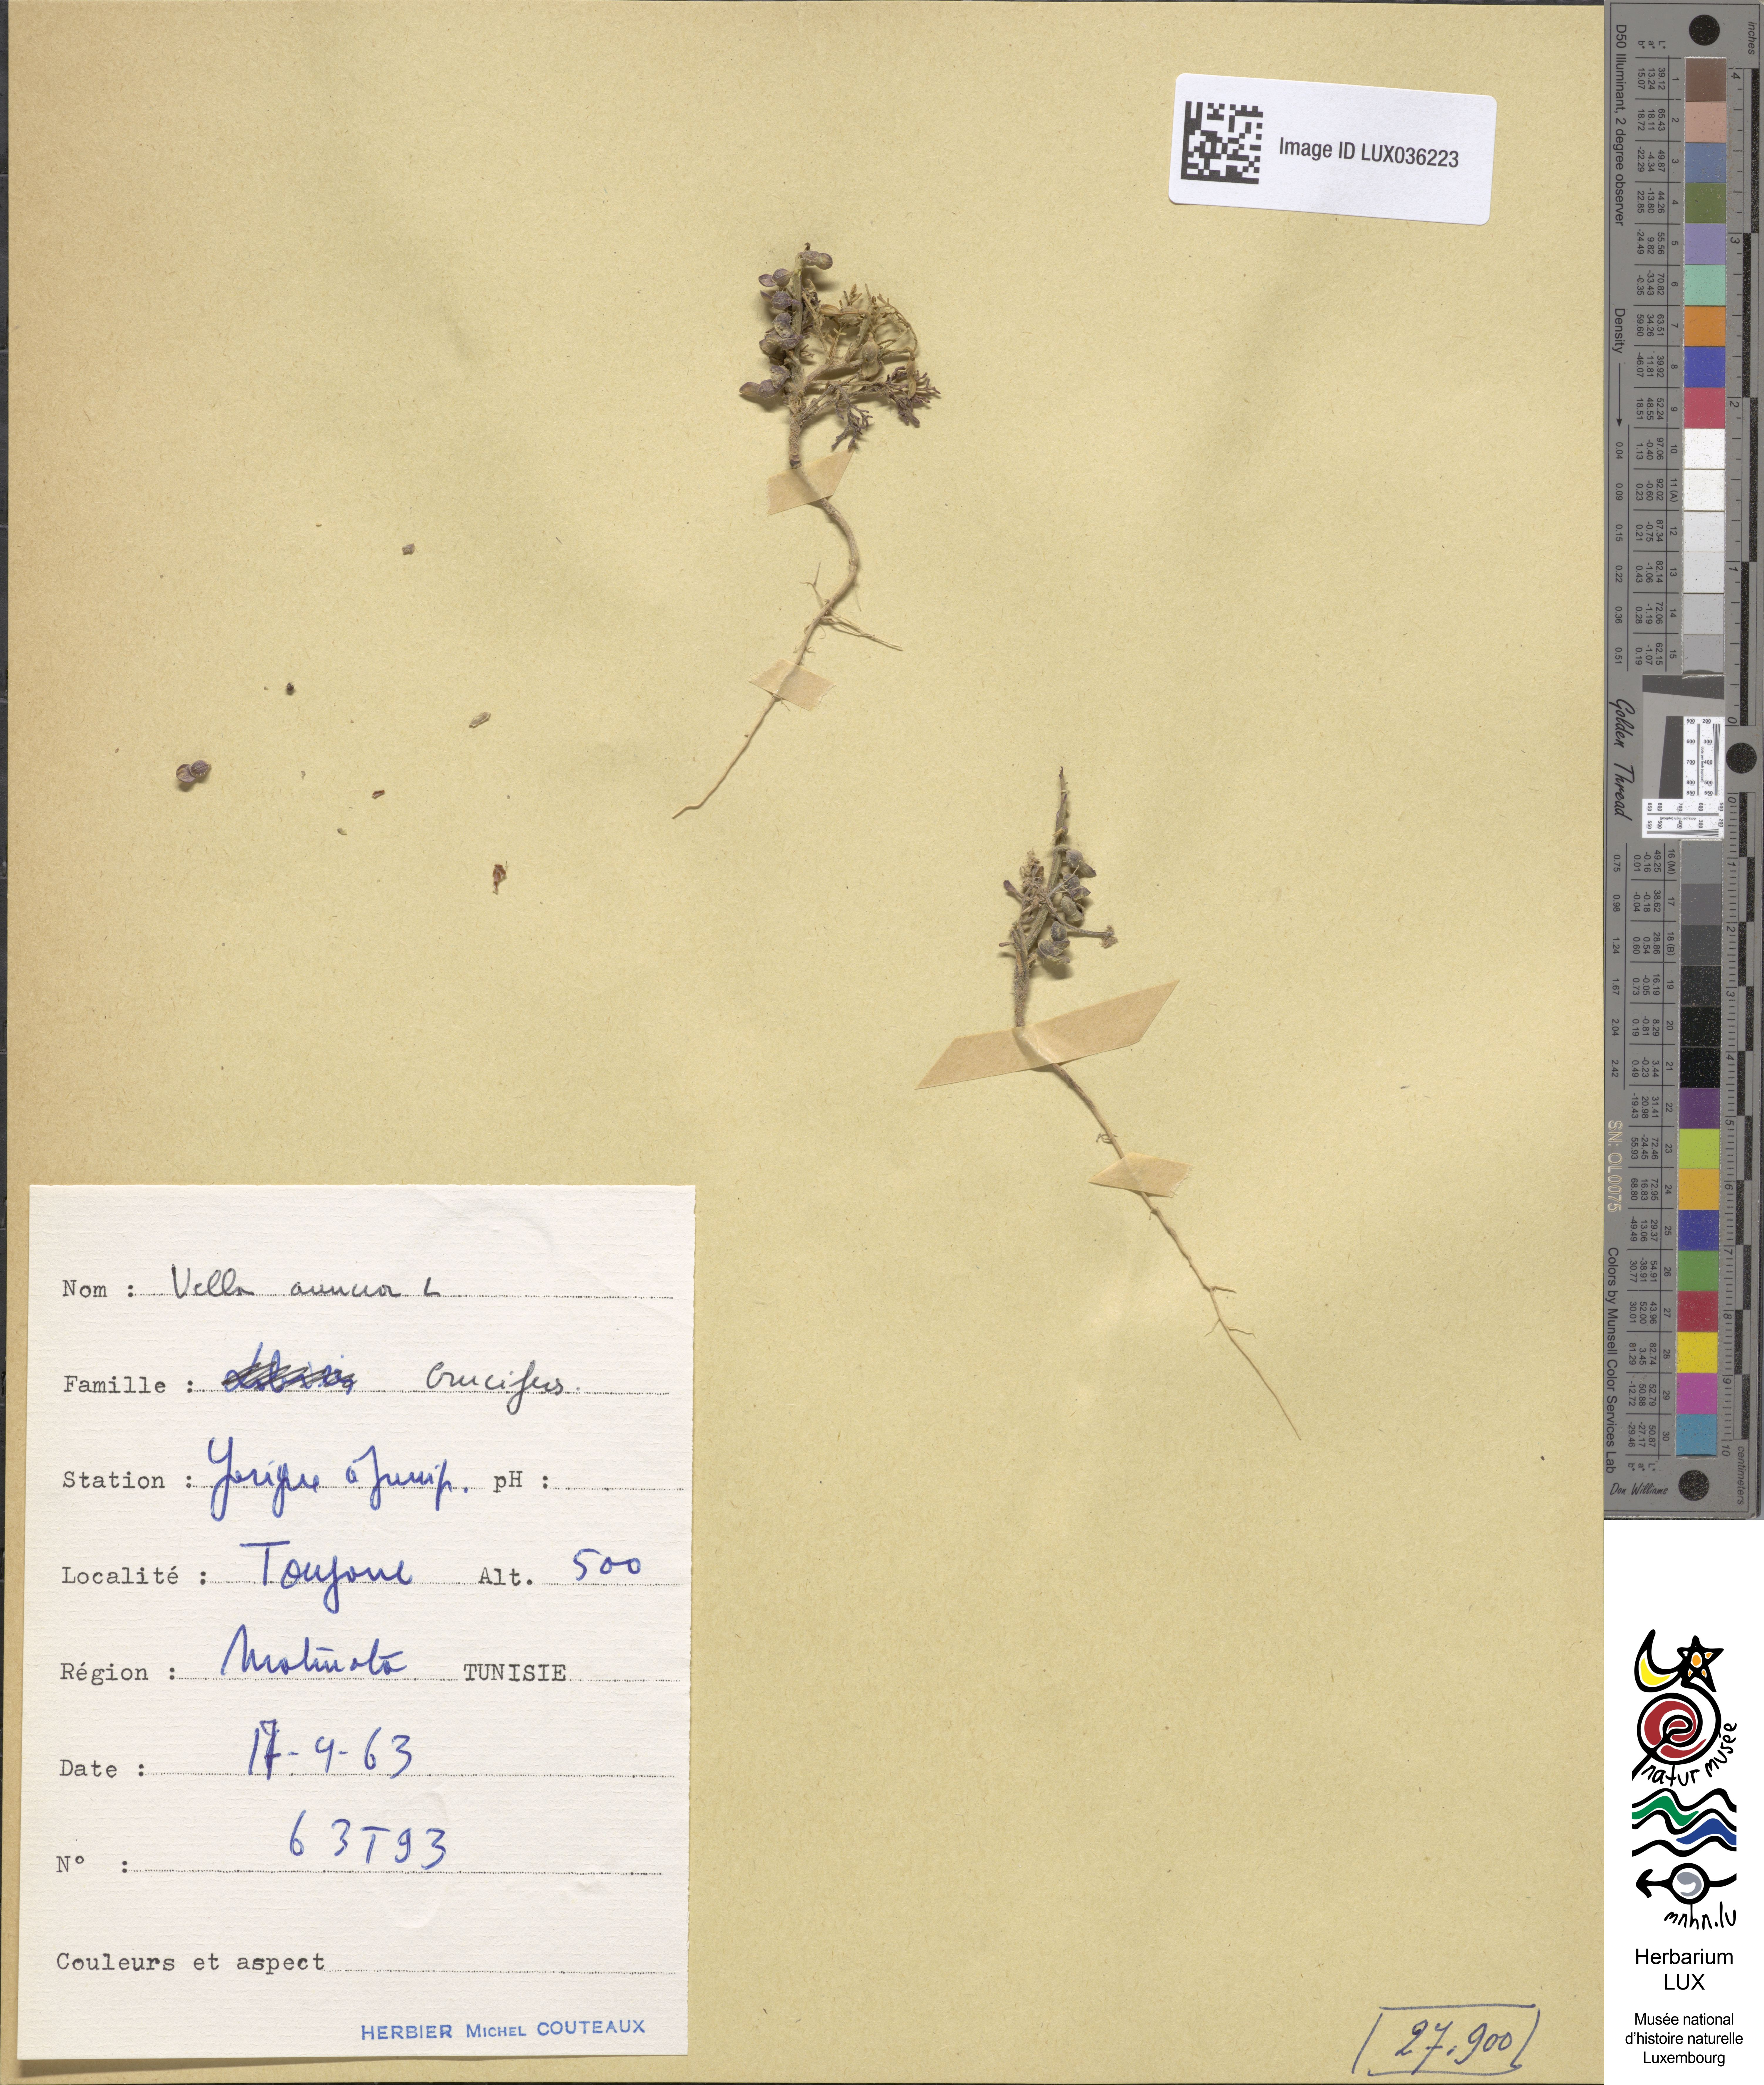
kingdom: Plantae
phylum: Tracheophyta
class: Magnoliopsida
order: Brassicales
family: Brassicaceae
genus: Carrichtera
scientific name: Carrichtera annua
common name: Cress rocket
